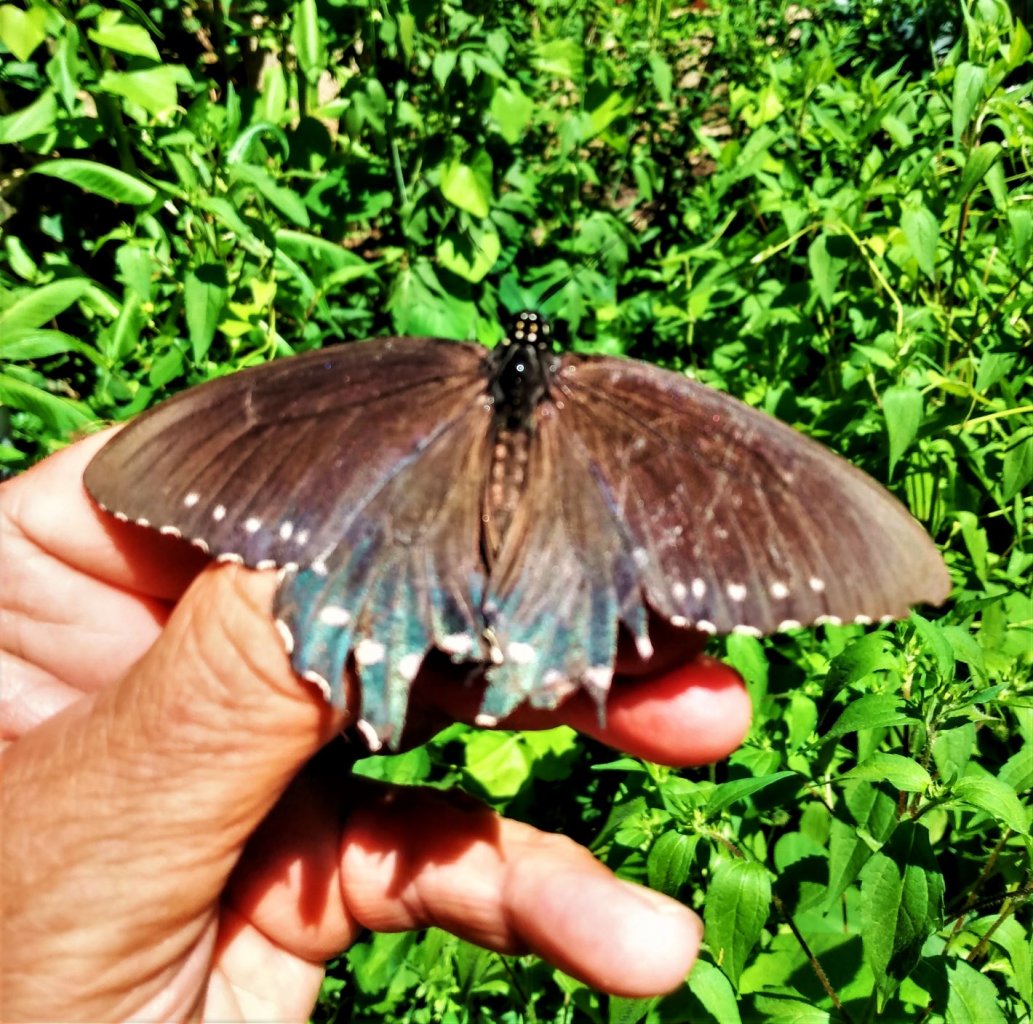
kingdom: Animalia
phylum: Arthropoda
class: Insecta
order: Lepidoptera
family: Papilionidae
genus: Battus
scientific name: Battus philenor
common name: Pipevine Swallowtail
